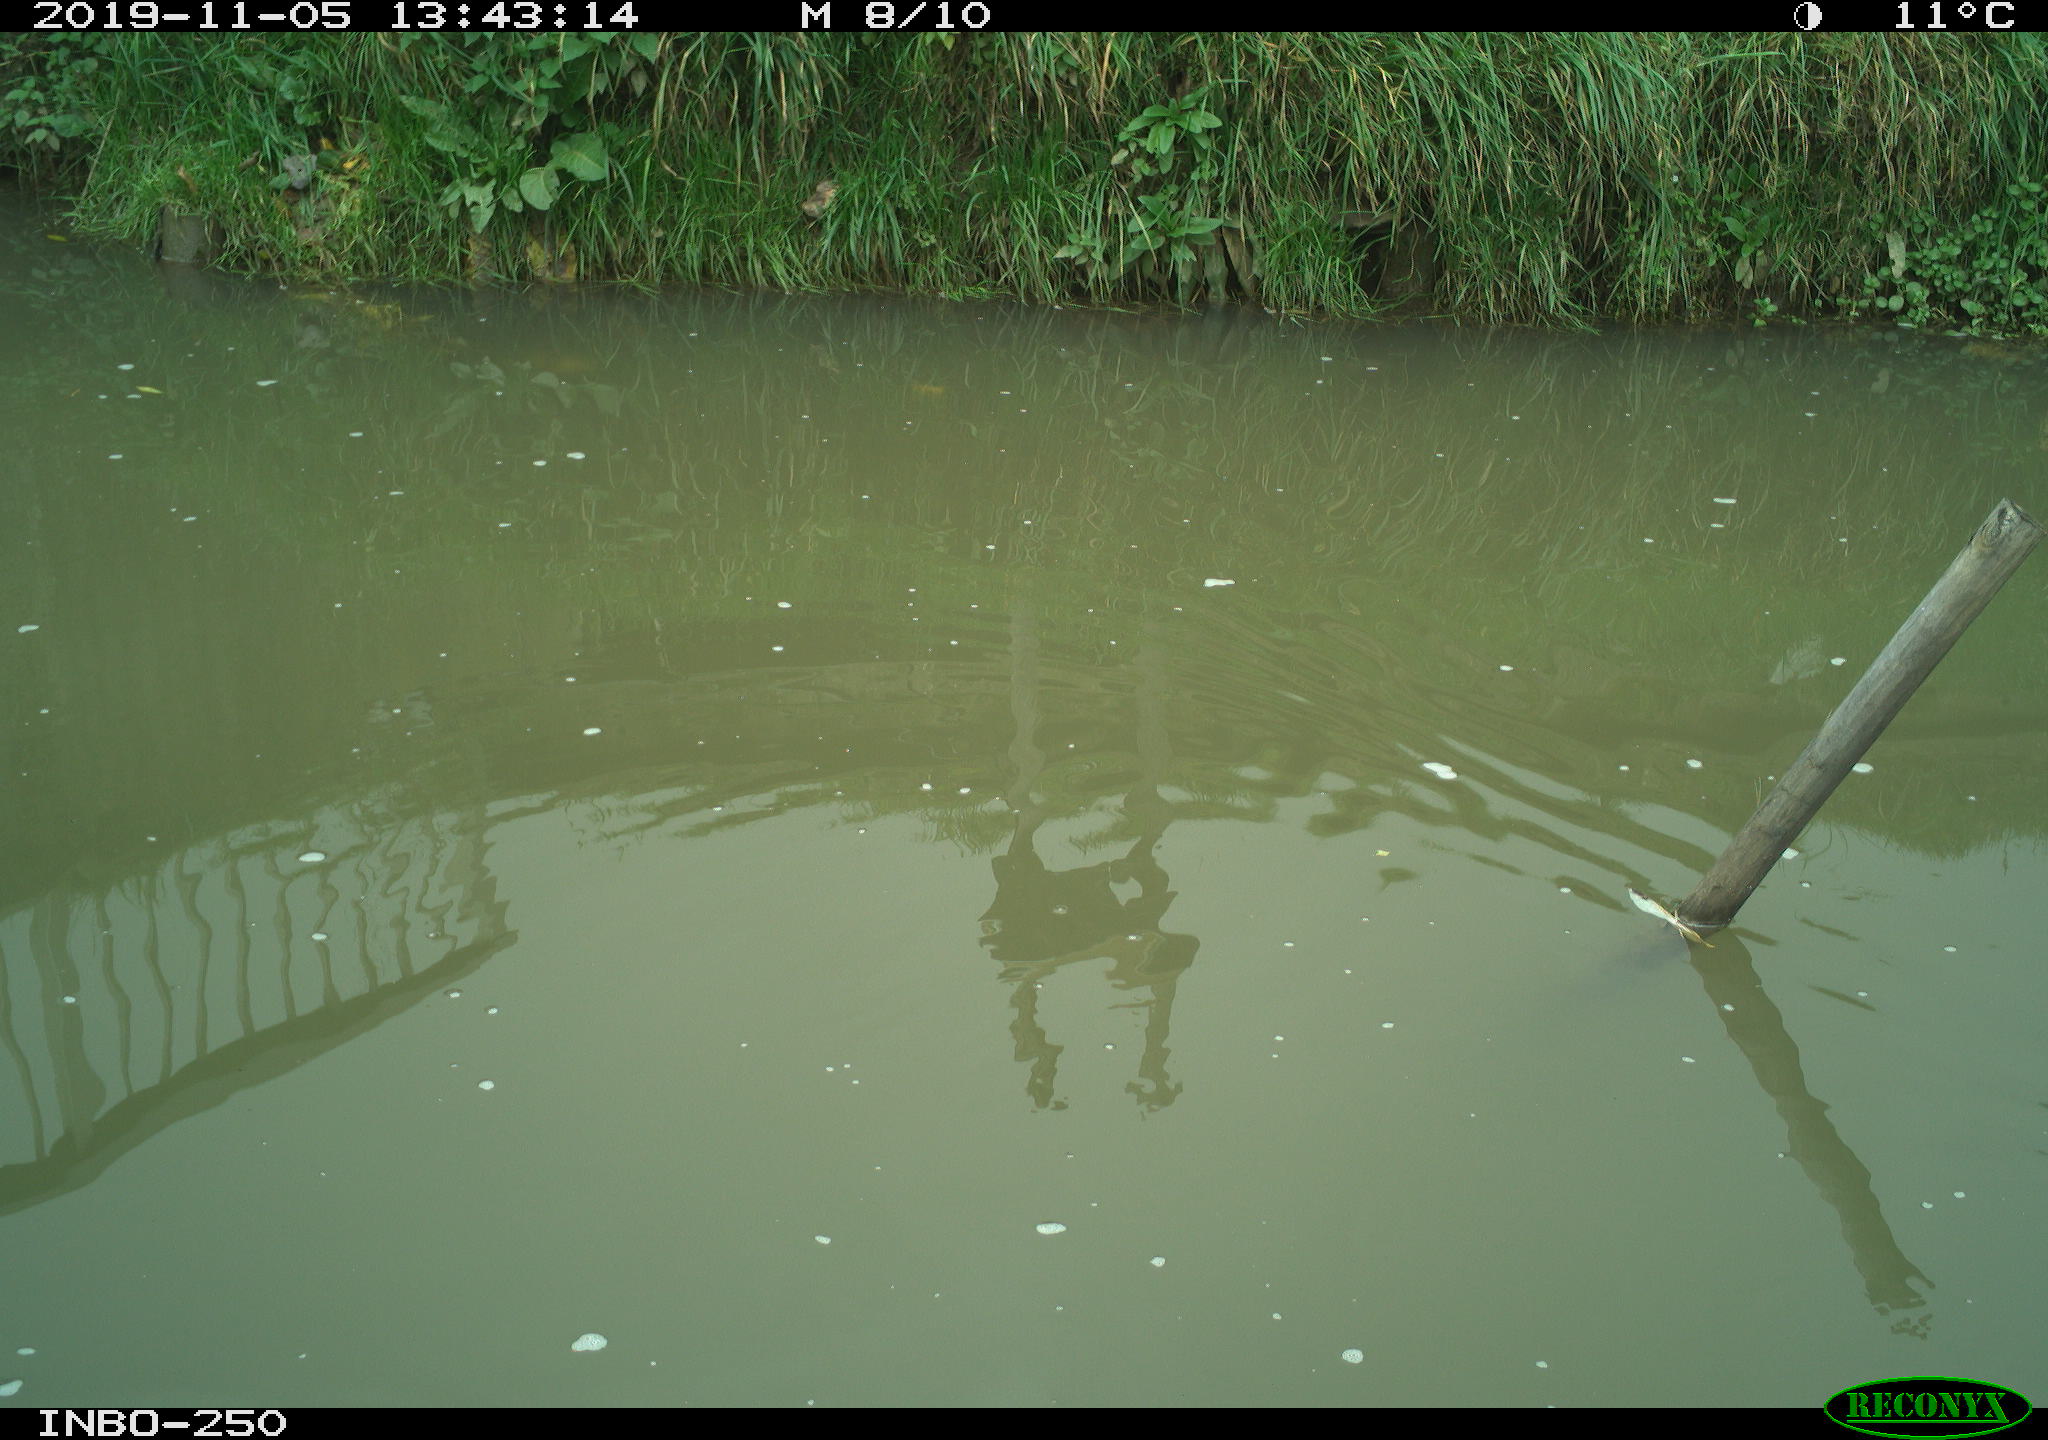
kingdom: Animalia
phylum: Chordata
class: Aves
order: Gruiformes
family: Rallidae
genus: Gallinula
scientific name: Gallinula chloropus
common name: Common moorhen
